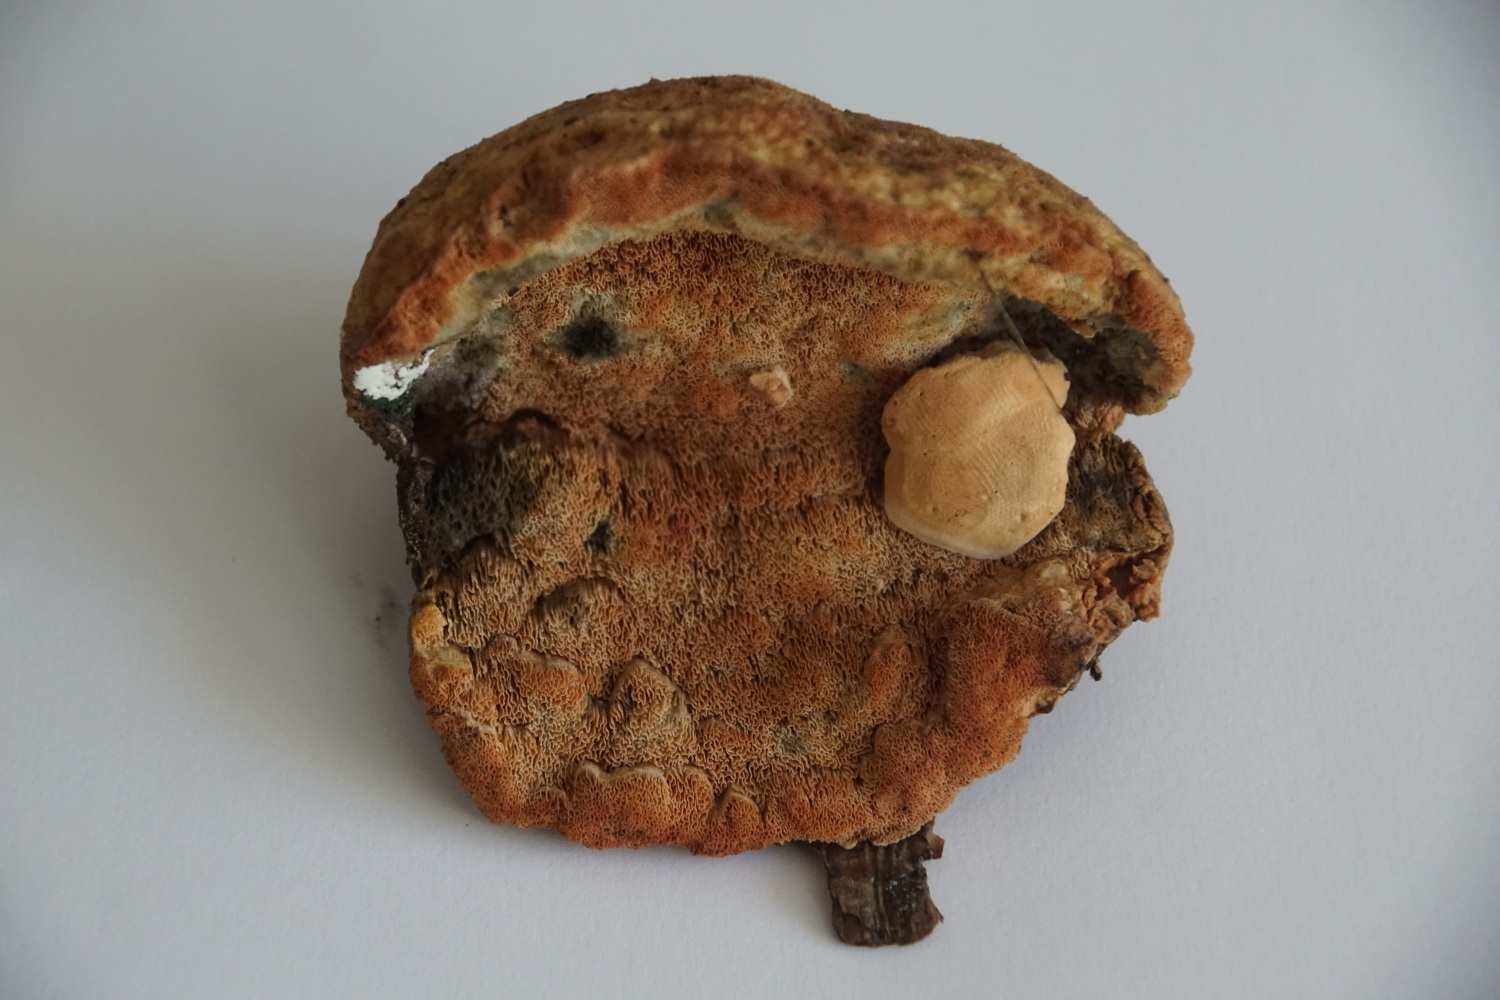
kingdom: Fungi
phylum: Basidiomycota
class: Agaricomycetes
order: Polyporales
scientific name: Polyporales
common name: poresvampordenen
